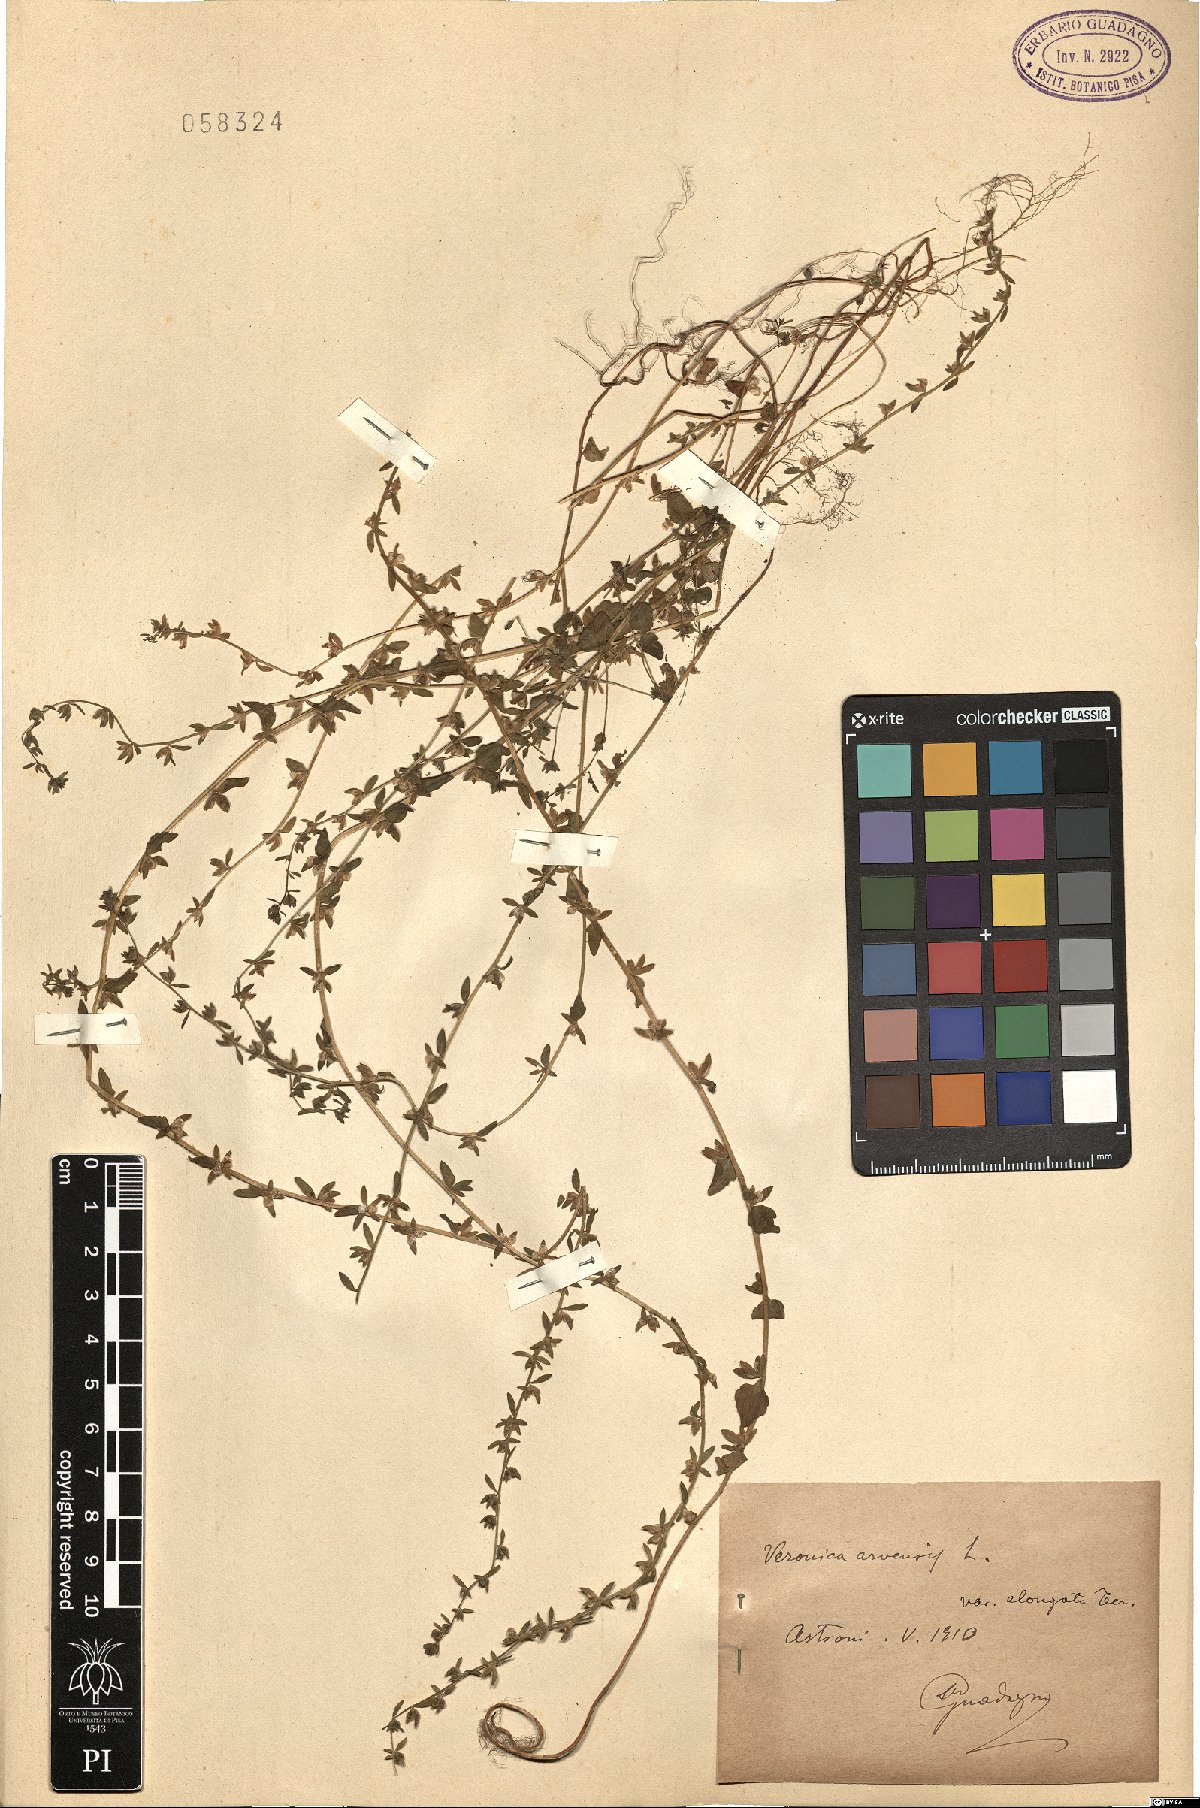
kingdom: Plantae
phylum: Tracheophyta
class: Magnoliopsida
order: Lamiales
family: Plantaginaceae
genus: Veronica
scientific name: Veronica arvensis
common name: Corn speedwell
